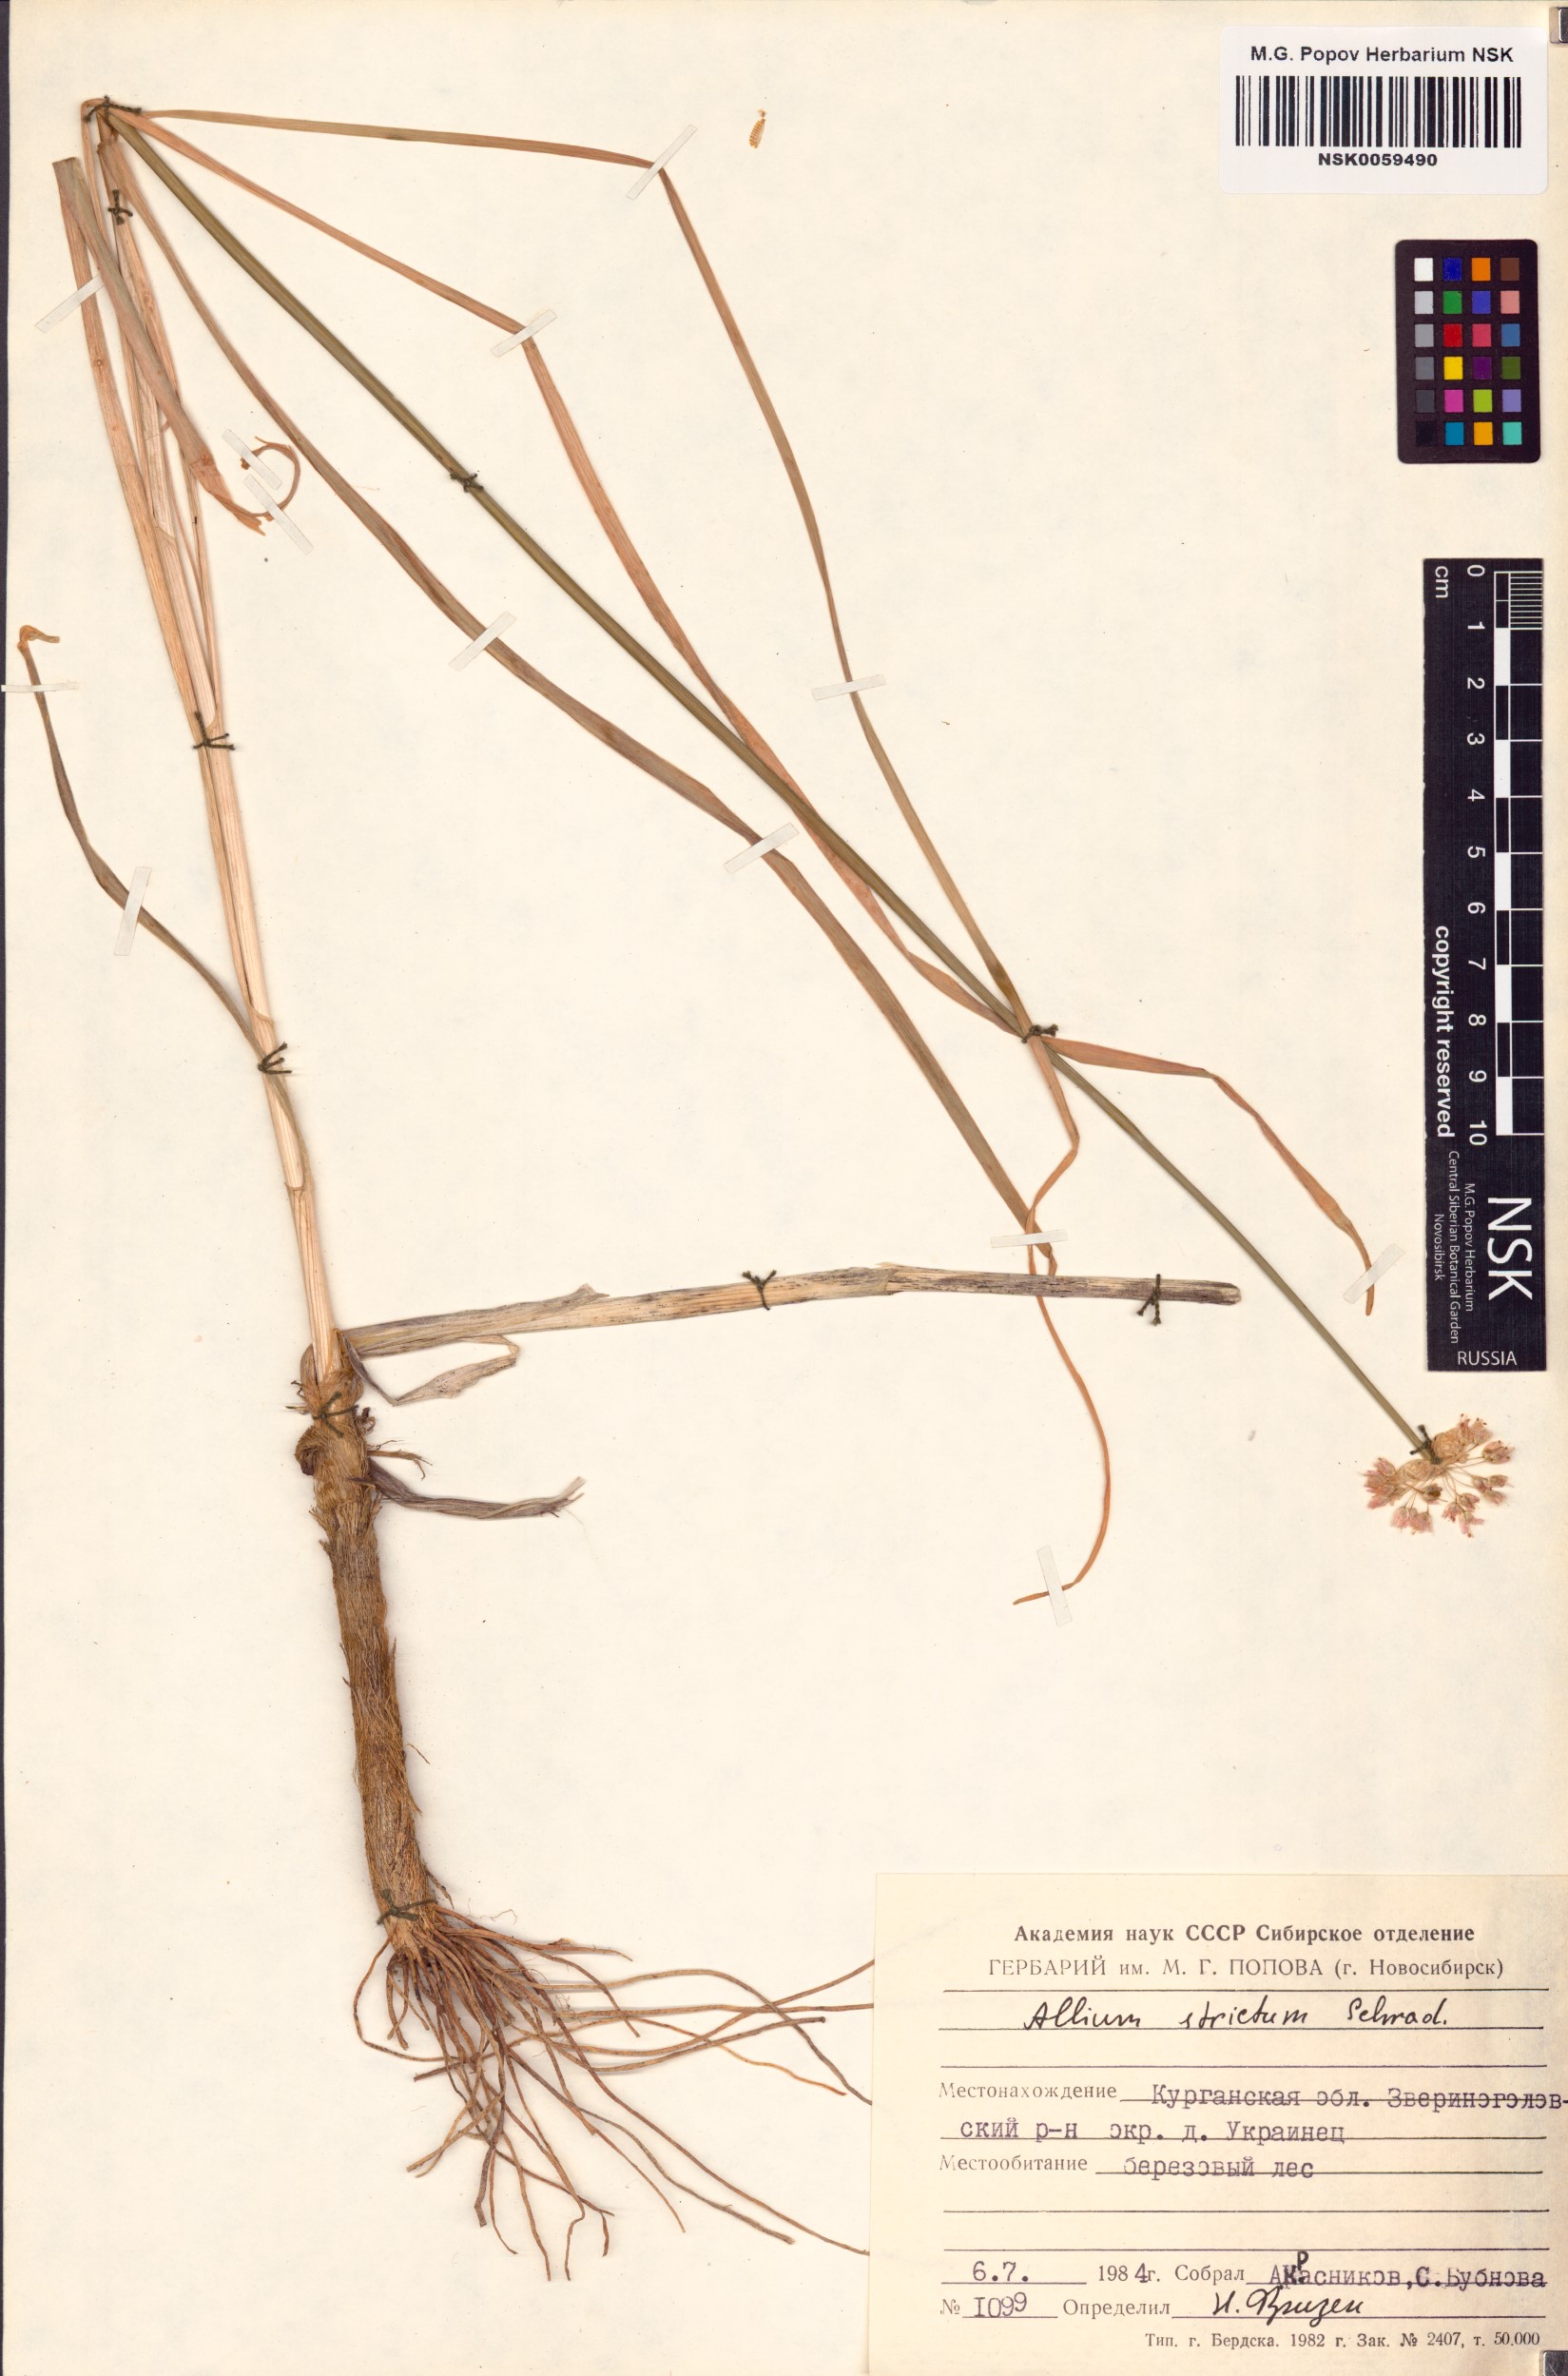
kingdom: Plantae
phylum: Tracheophyta
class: Liliopsida
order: Asparagales
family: Amaryllidaceae
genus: Allium
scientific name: Allium strictum
